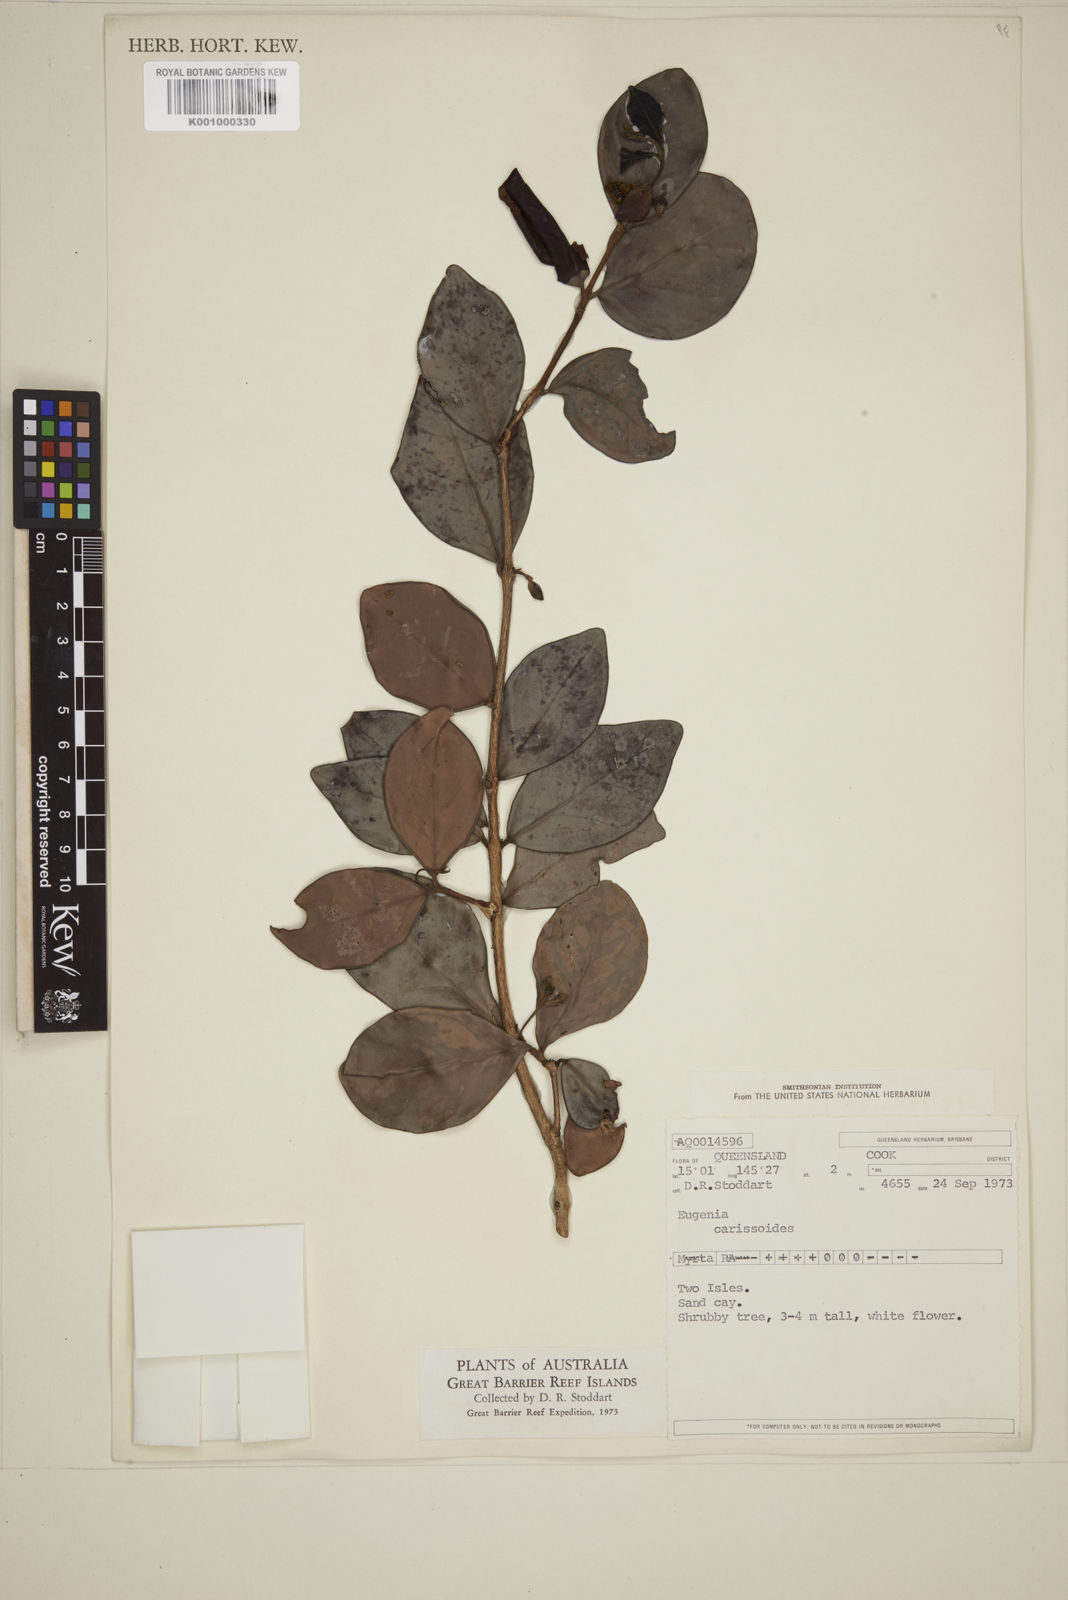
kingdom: Plantae
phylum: Tracheophyta
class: Magnoliopsida
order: Myrtales
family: Myrtaceae
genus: Eugenia
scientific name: Eugenia reinwardtiana
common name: Cedar bay-cherry
